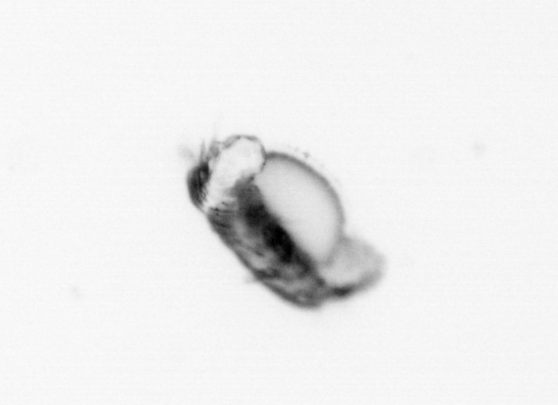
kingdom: Animalia
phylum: Annelida
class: Polychaeta
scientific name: Polychaeta
